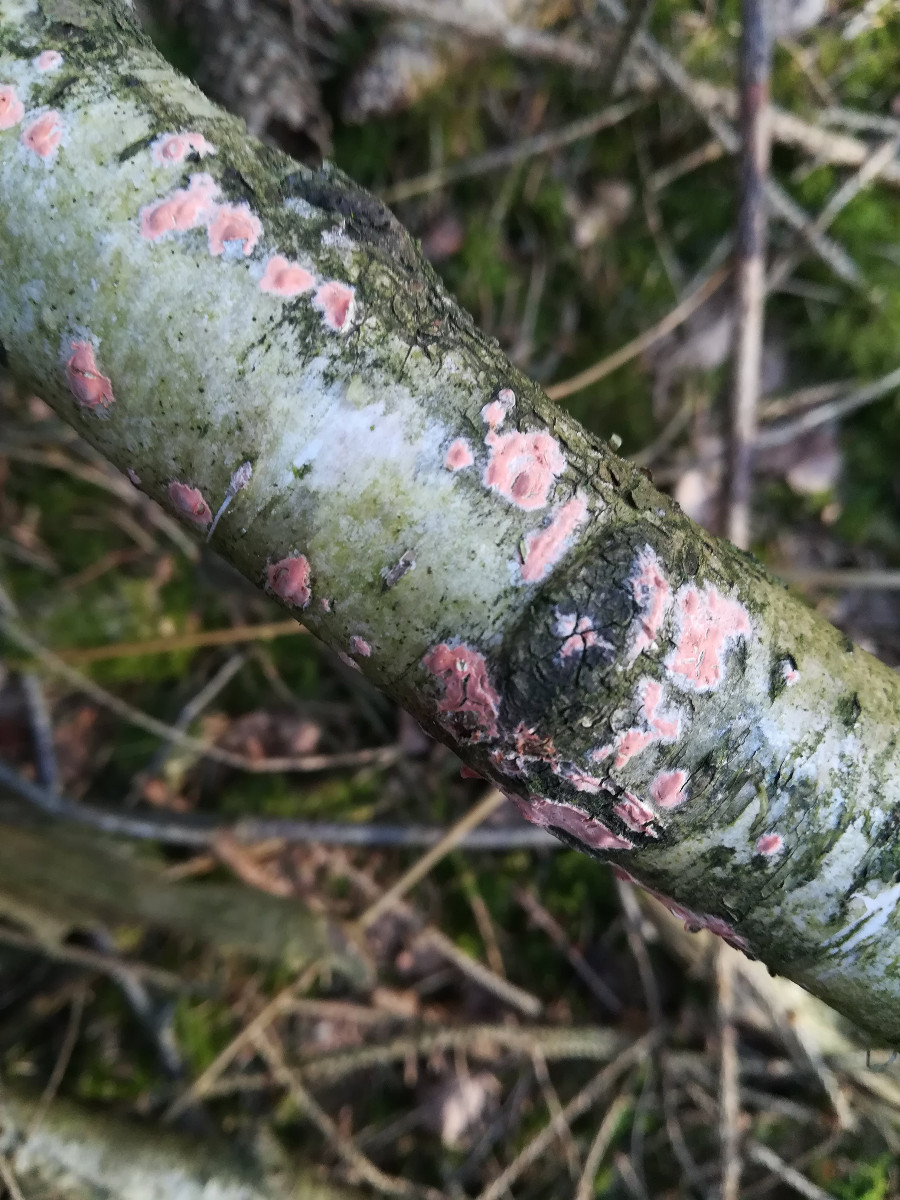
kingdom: Fungi
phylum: Basidiomycota
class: Agaricomycetes
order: Russulales
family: Peniophoraceae
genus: Peniophora
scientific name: Peniophora incarnata
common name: laksefarvet voksskind
